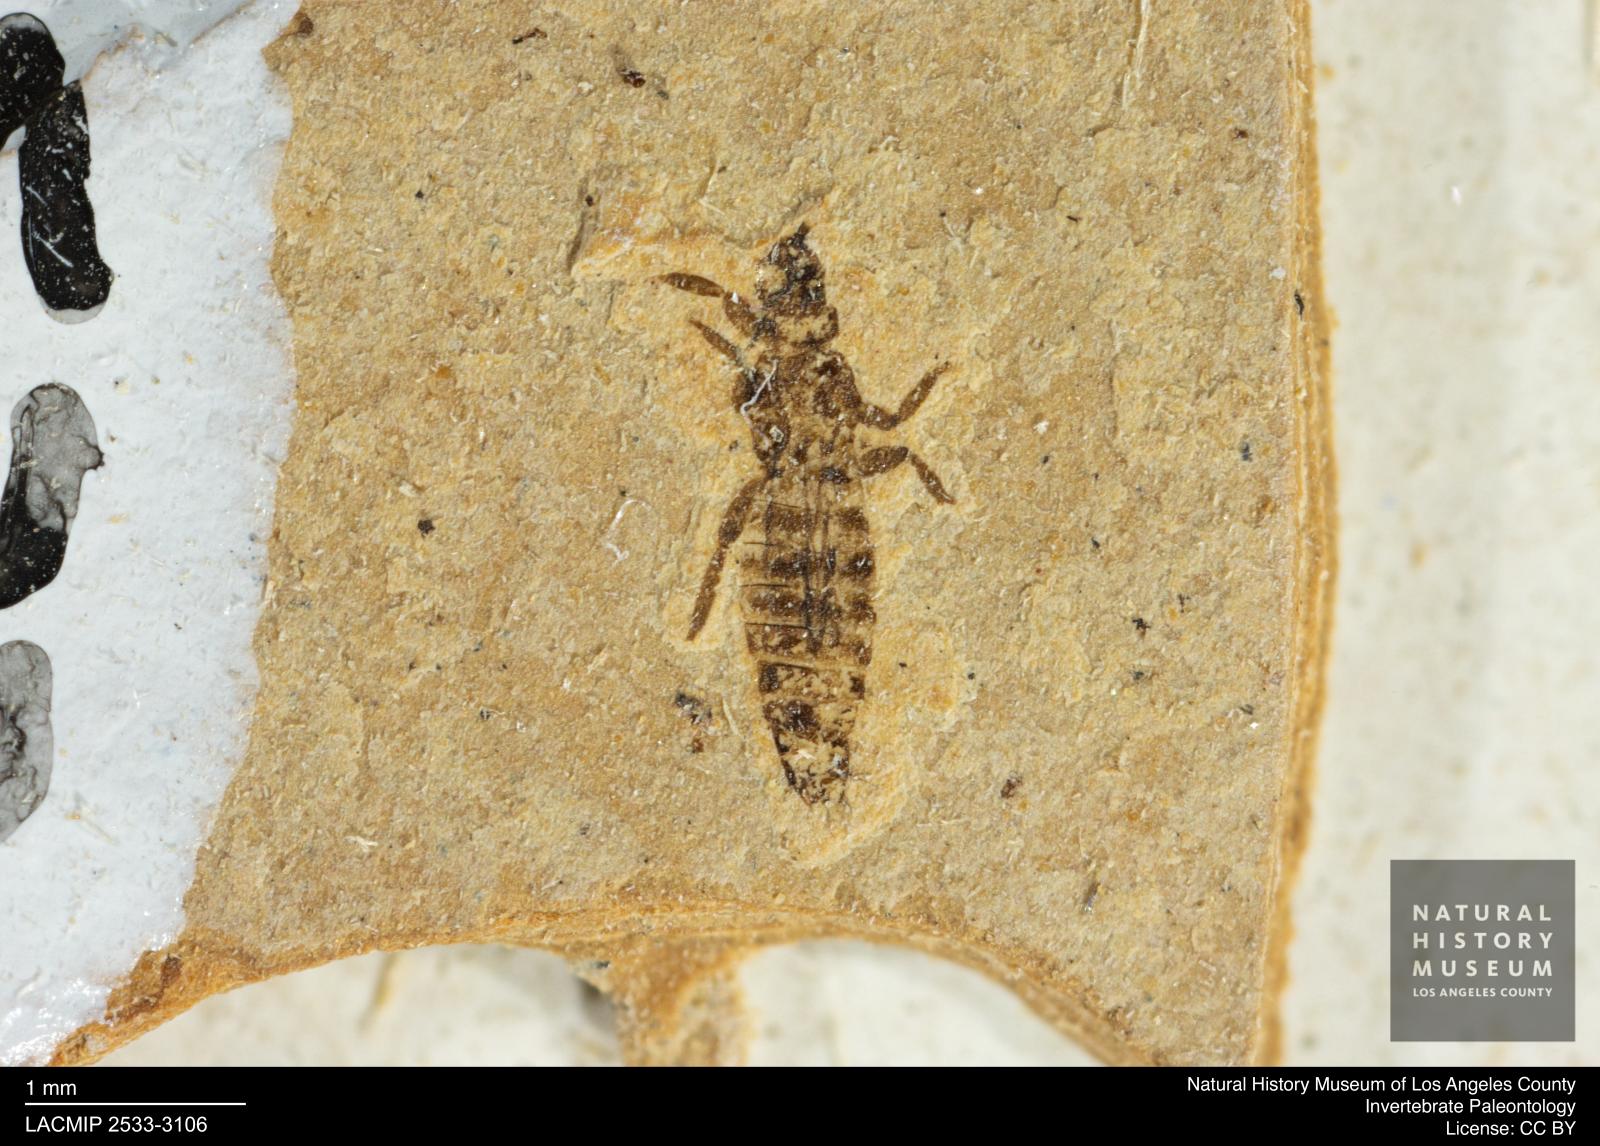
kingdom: Animalia
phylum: Arthropoda
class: Insecta
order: Thysanoptera
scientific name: Thysanoptera
